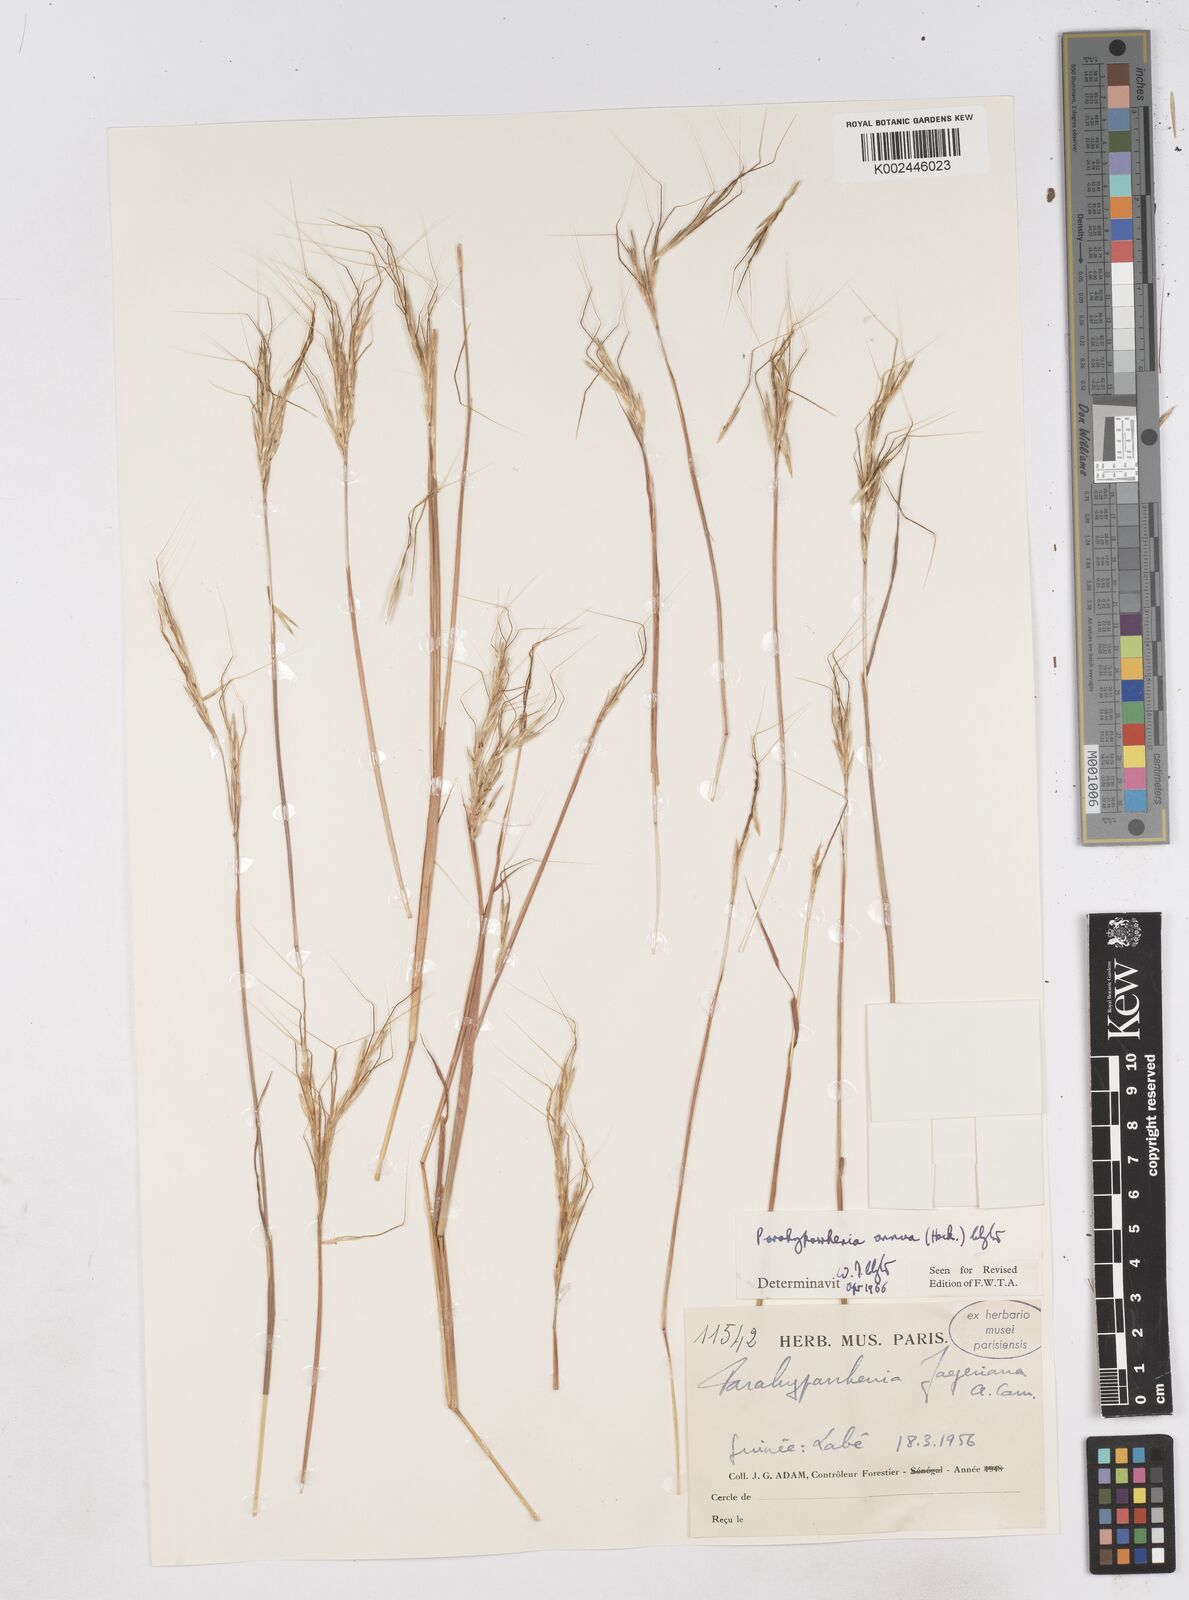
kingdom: Plantae
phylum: Tracheophyta
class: Liliopsida
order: Poales
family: Poaceae
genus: Parahyparrhenia
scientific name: Parahyparrhenia annua
